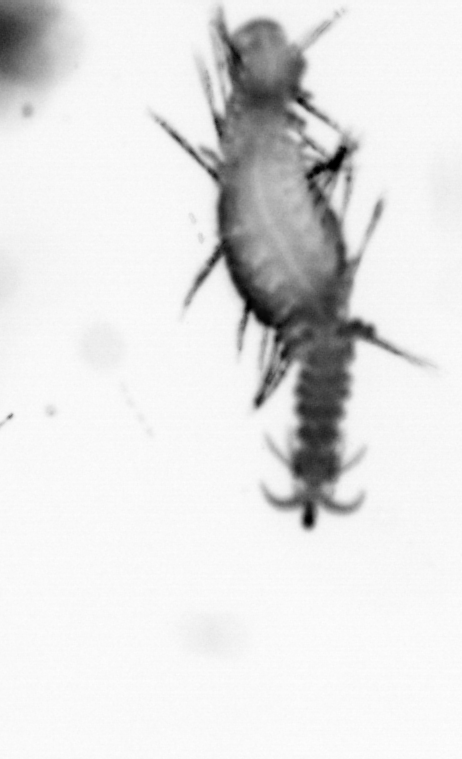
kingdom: Animalia
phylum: Annelida
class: Polychaeta
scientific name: Polychaeta
